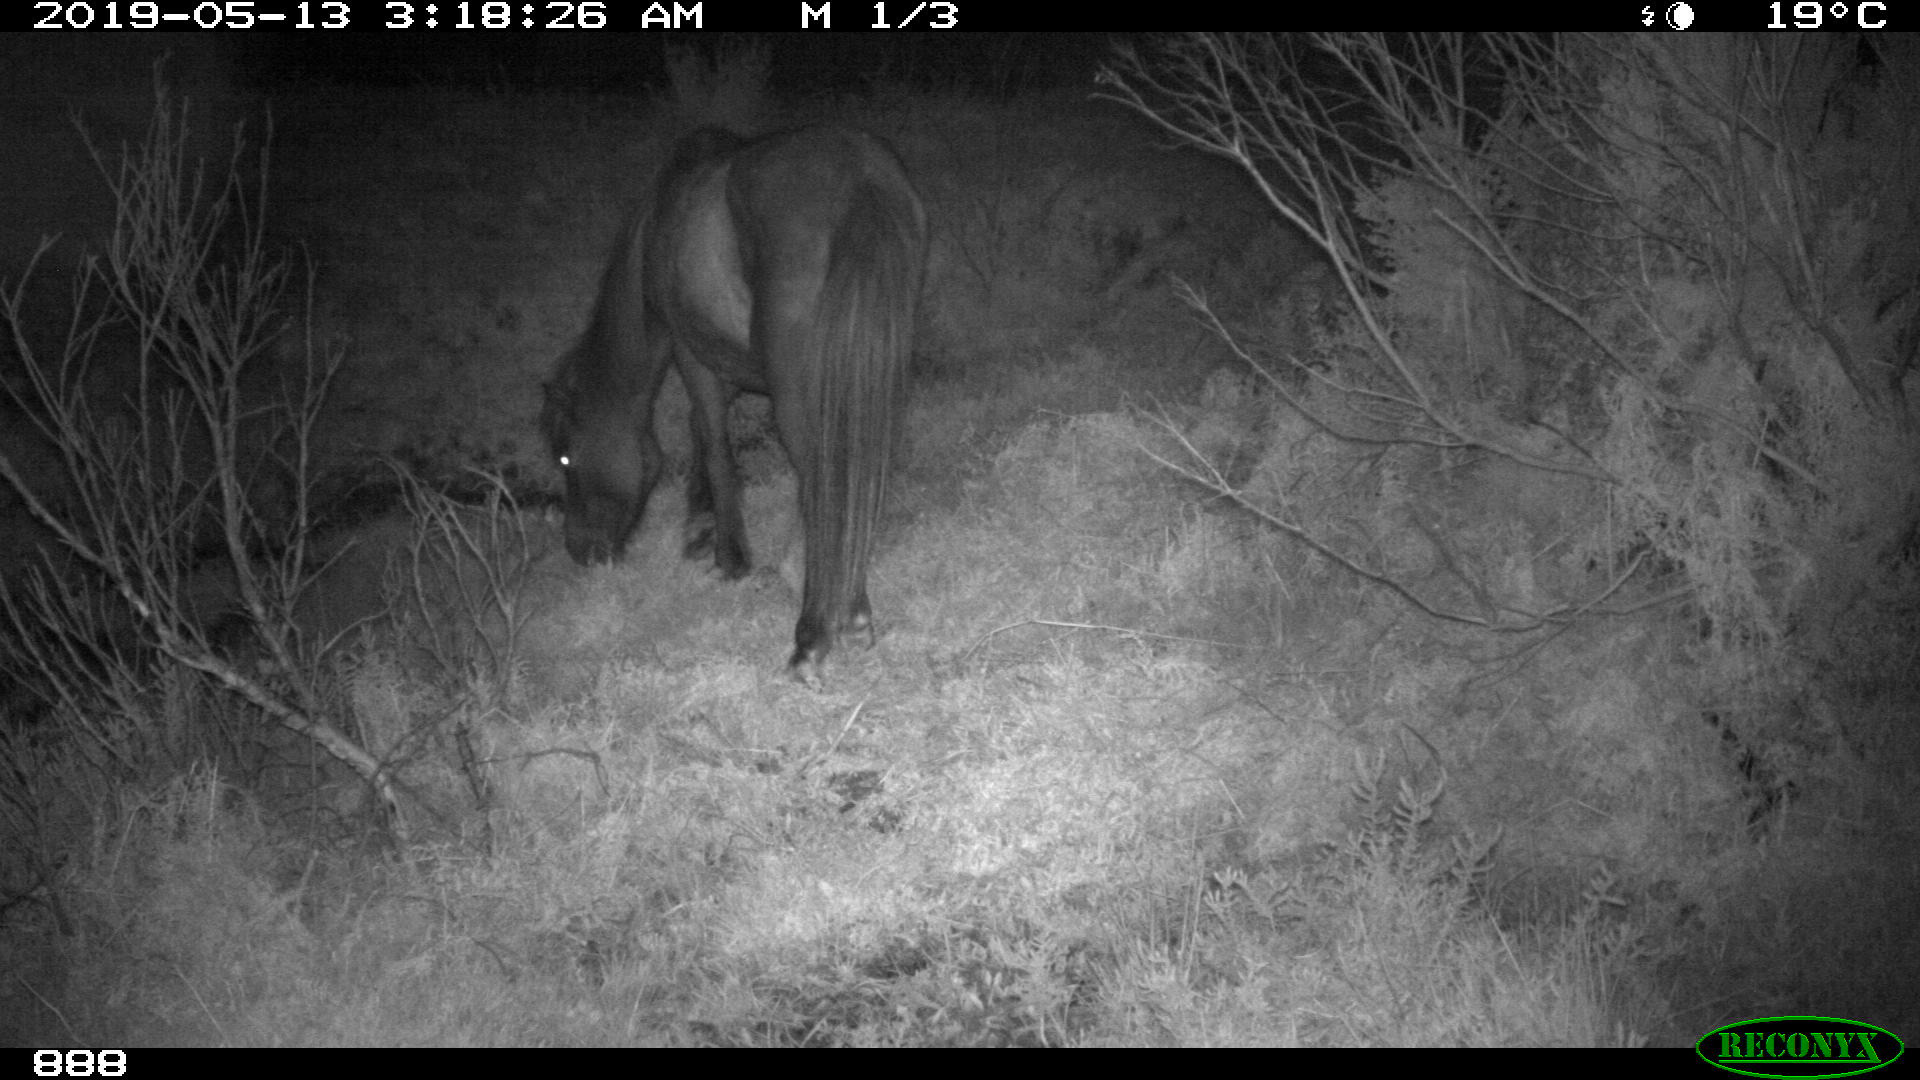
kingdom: Animalia
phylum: Chordata
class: Mammalia
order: Perissodactyla
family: Equidae
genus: Equus
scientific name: Equus caballus
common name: Horse
